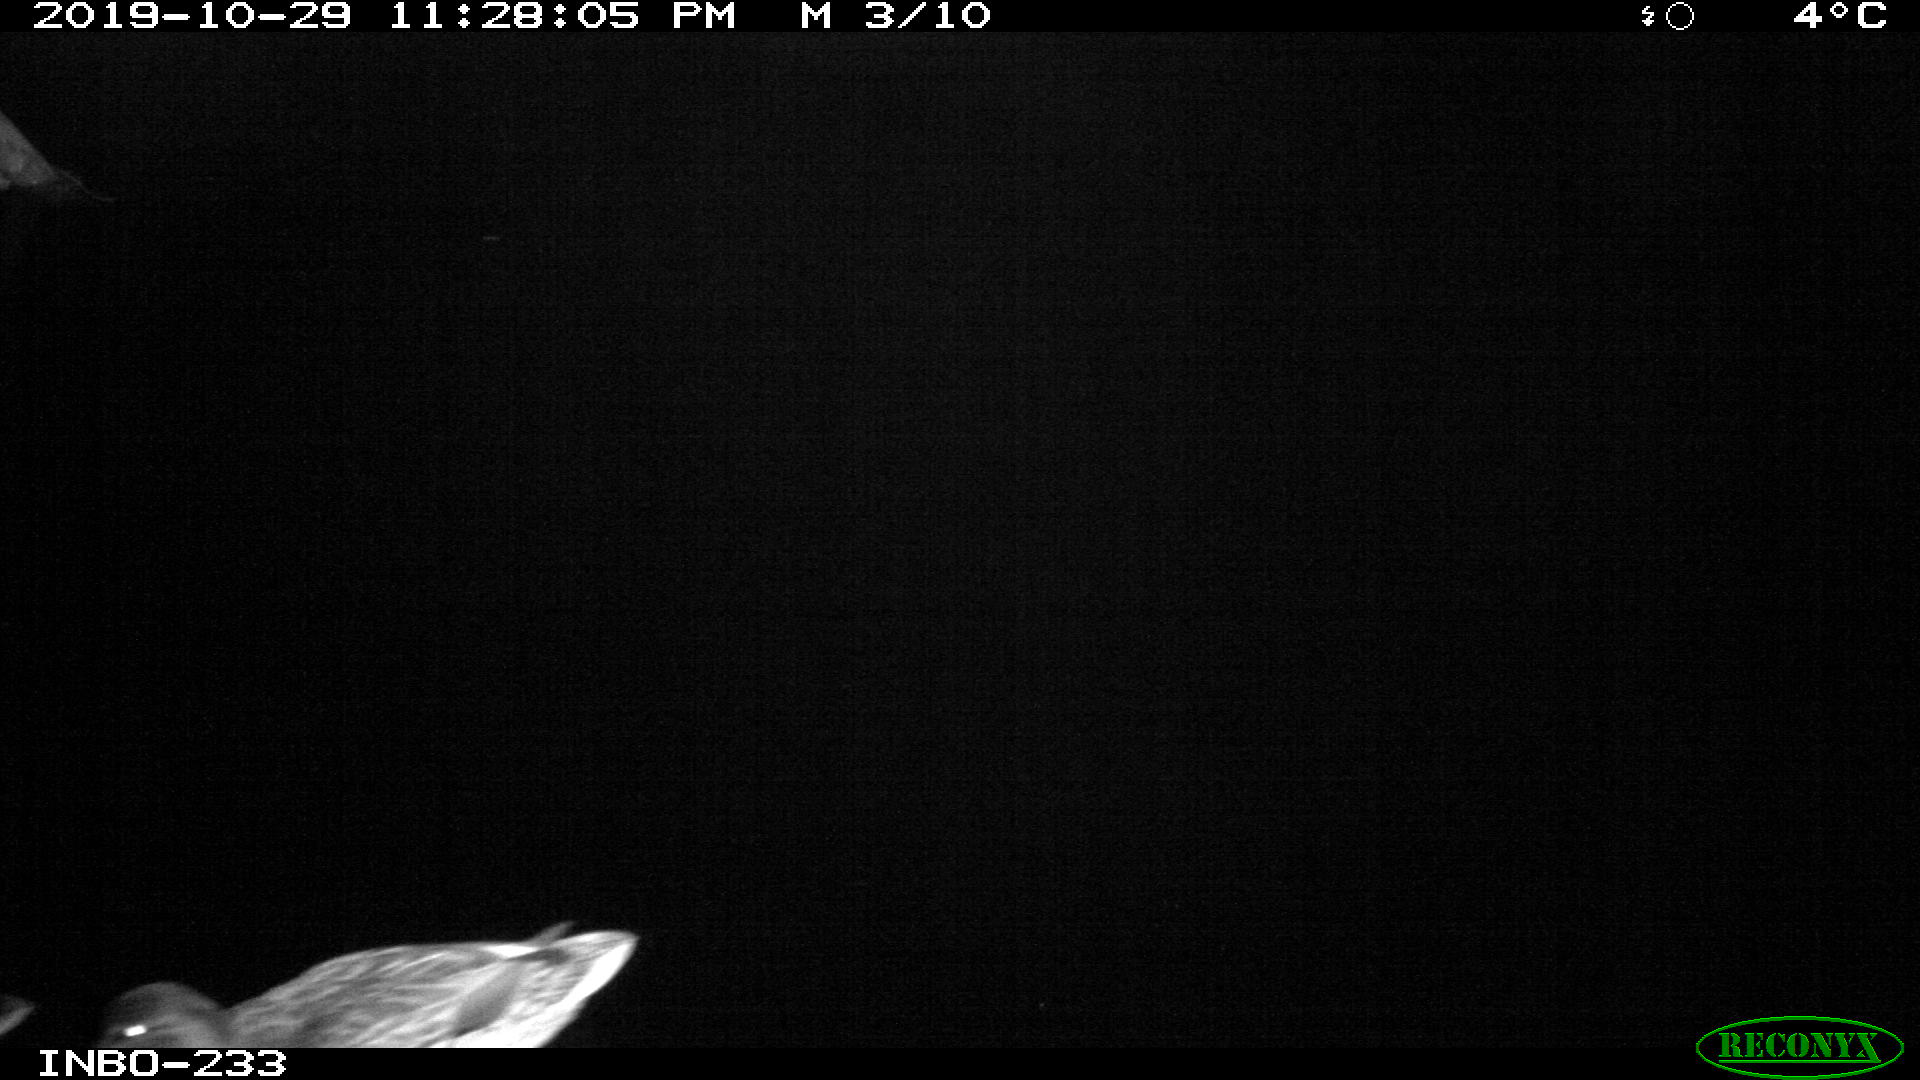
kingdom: Animalia
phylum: Chordata
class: Aves
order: Anseriformes
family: Anatidae
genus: Anas
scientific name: Anas platyrhynchos
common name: Mallard
